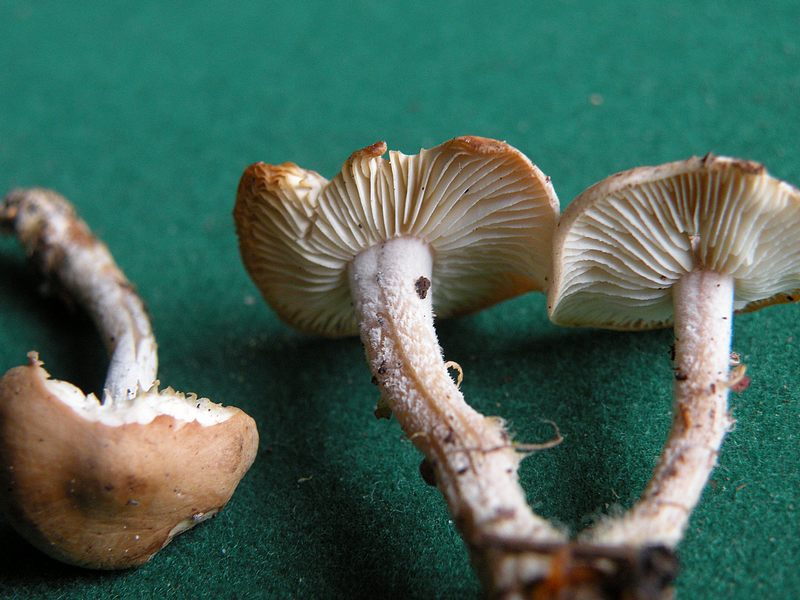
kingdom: Fungi
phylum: Basidiomycota
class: Agaricomycetes
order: Agaricales
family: Omphalotaceae
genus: Gymnopus
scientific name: Gymnopus hariolorum
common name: hvidkåls-fladhat
